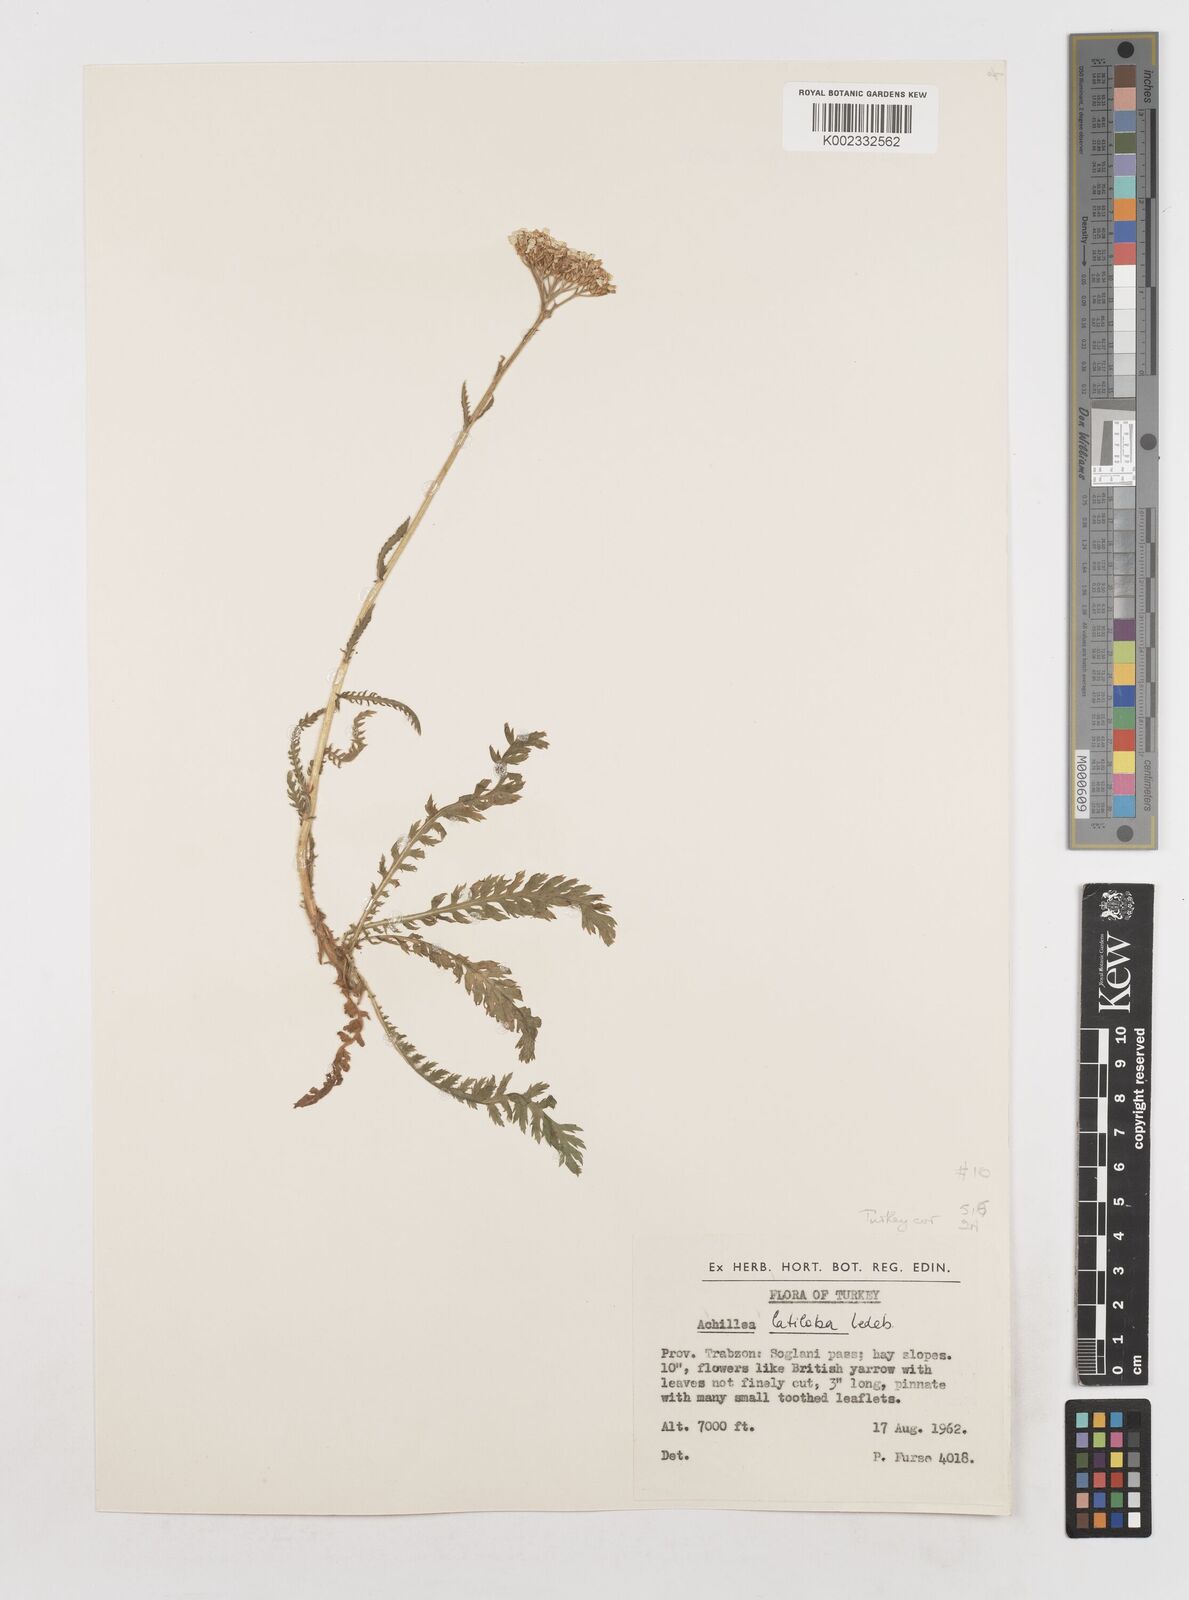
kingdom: Plantae
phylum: Tracheophyta
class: Magnoliopsida
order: Asterales
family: Asteraceae
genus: Achillea
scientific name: Achillea latiloba
